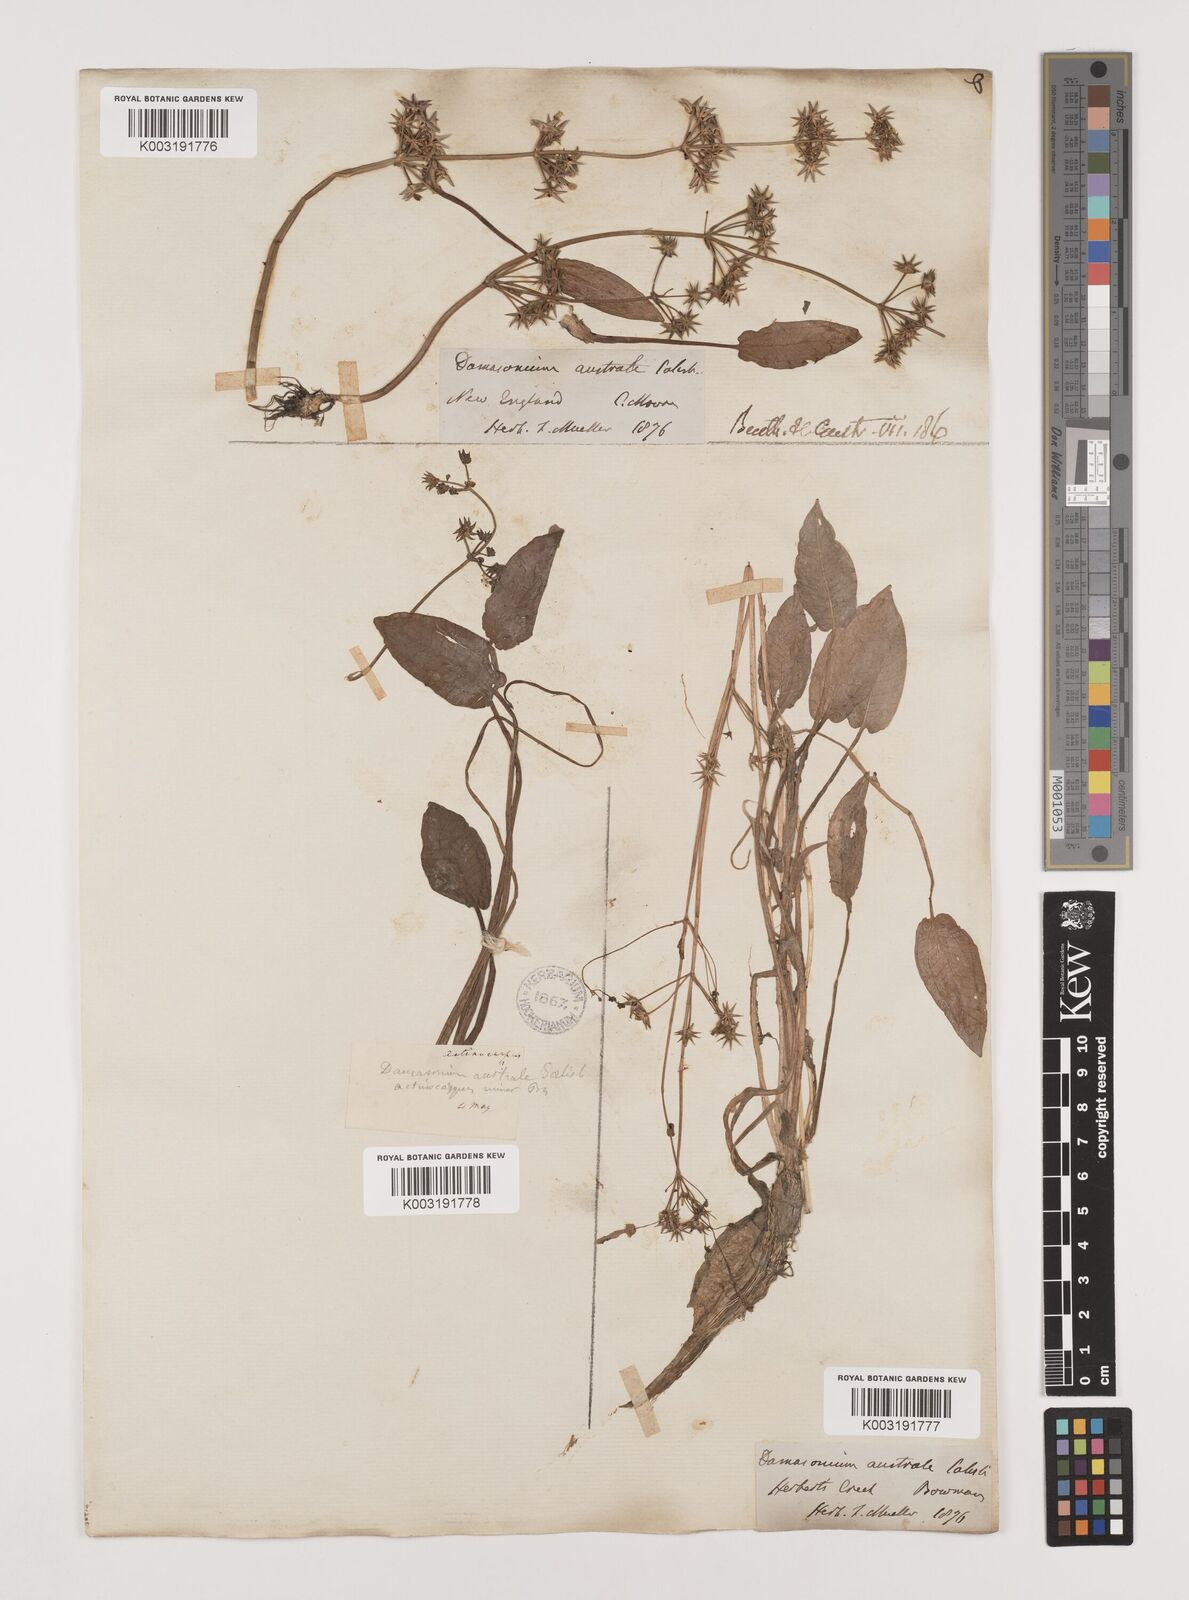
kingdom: Plantae
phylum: Tracheophyta
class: Liliopsida
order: Alismatales
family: Alismataceae
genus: Damasonium
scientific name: Damasonium minus
